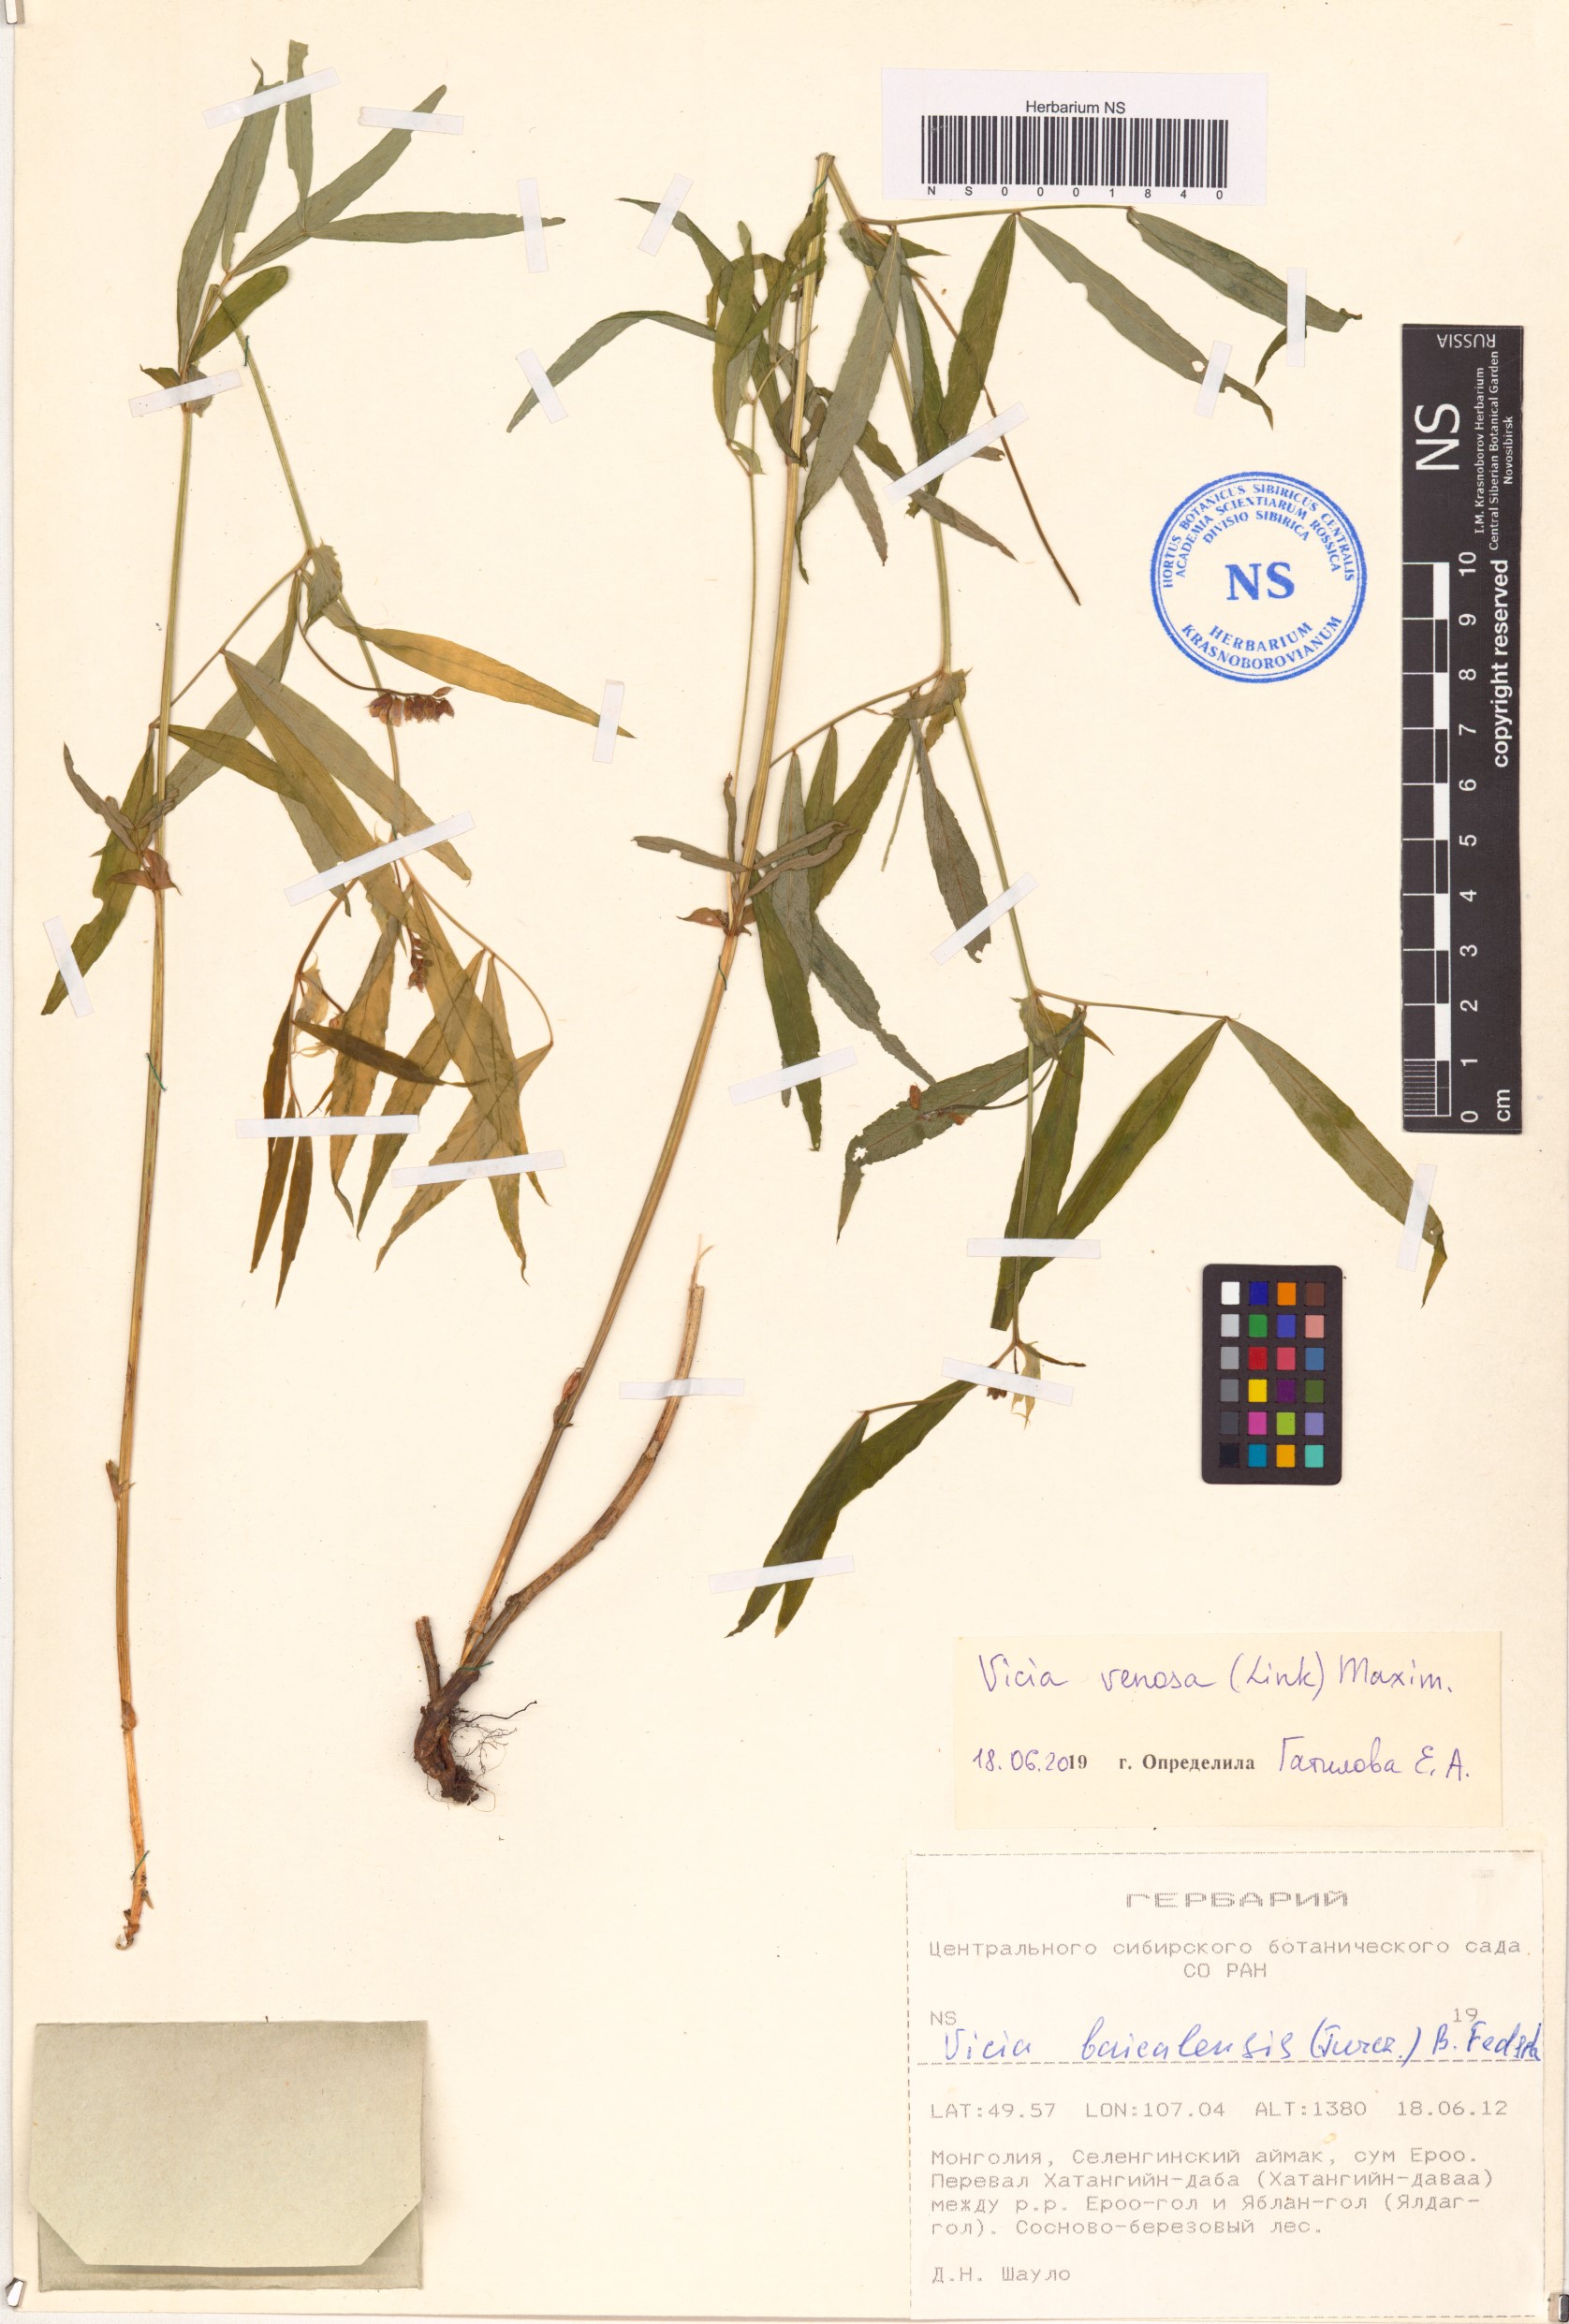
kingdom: Plantae
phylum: Tracheophyta
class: Magnoliopsida
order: Fabales
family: Fabaceae
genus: Vicia
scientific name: Vicia venosa
